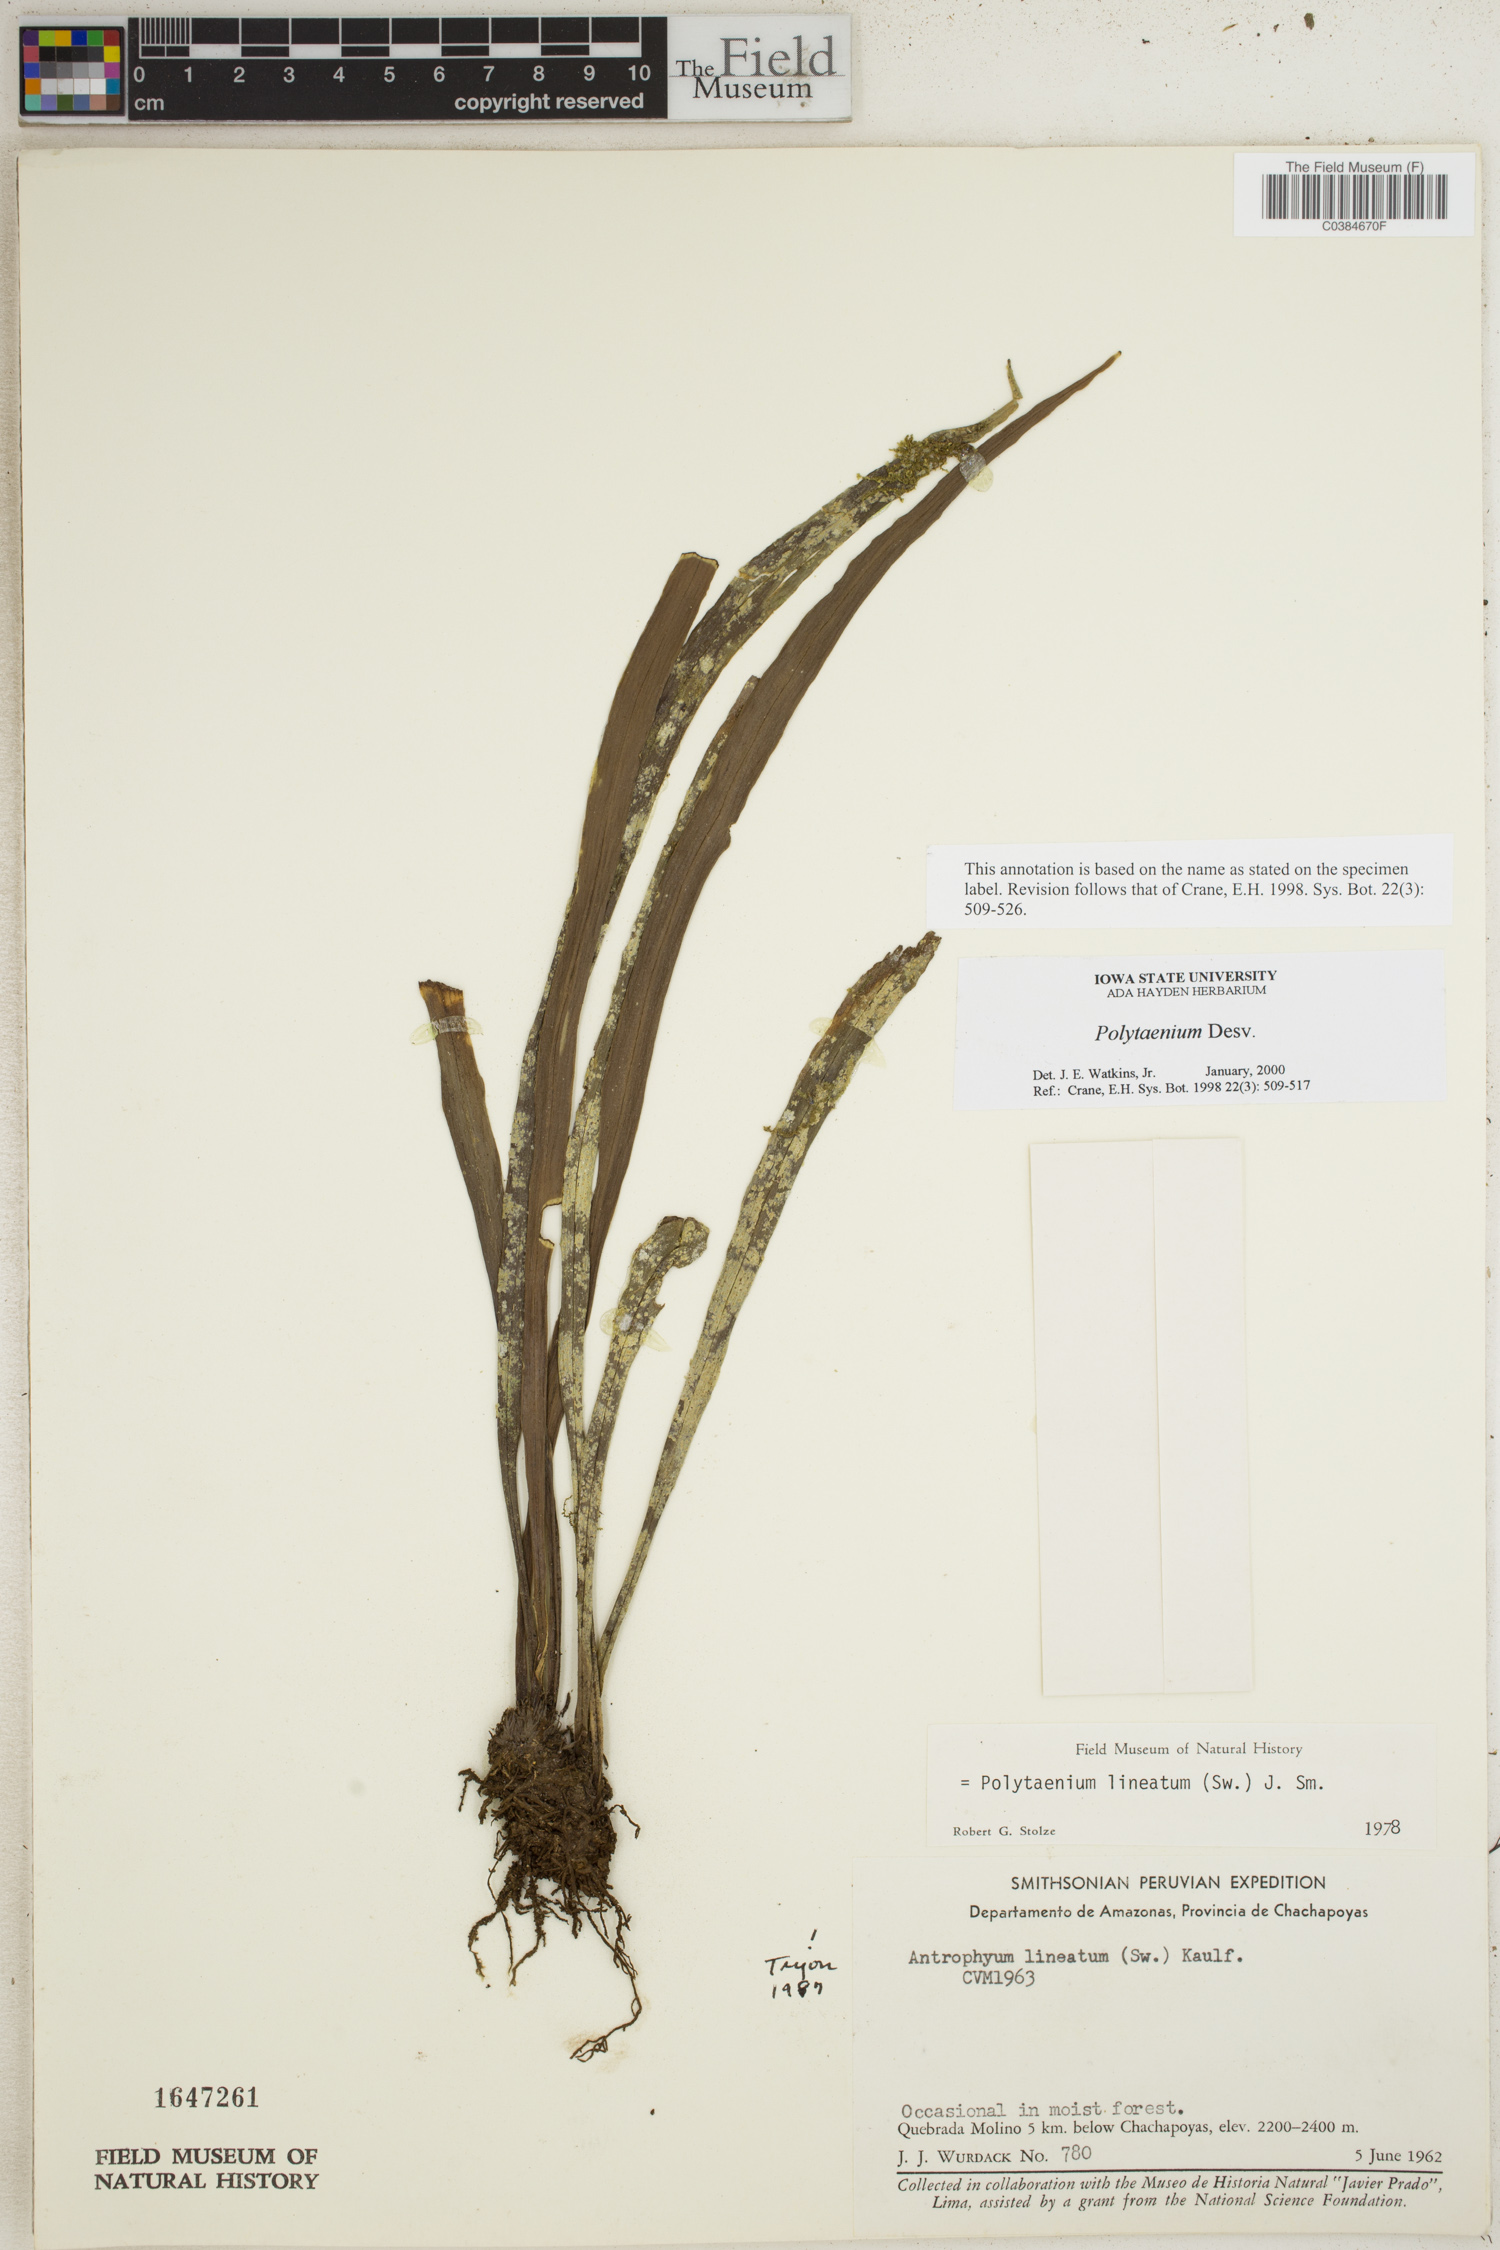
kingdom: Plantae
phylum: Tracheophyta
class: Polypodiopsida
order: Polypodiales
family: Pteridaceae
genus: Polytaenium
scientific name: Polytaenium
